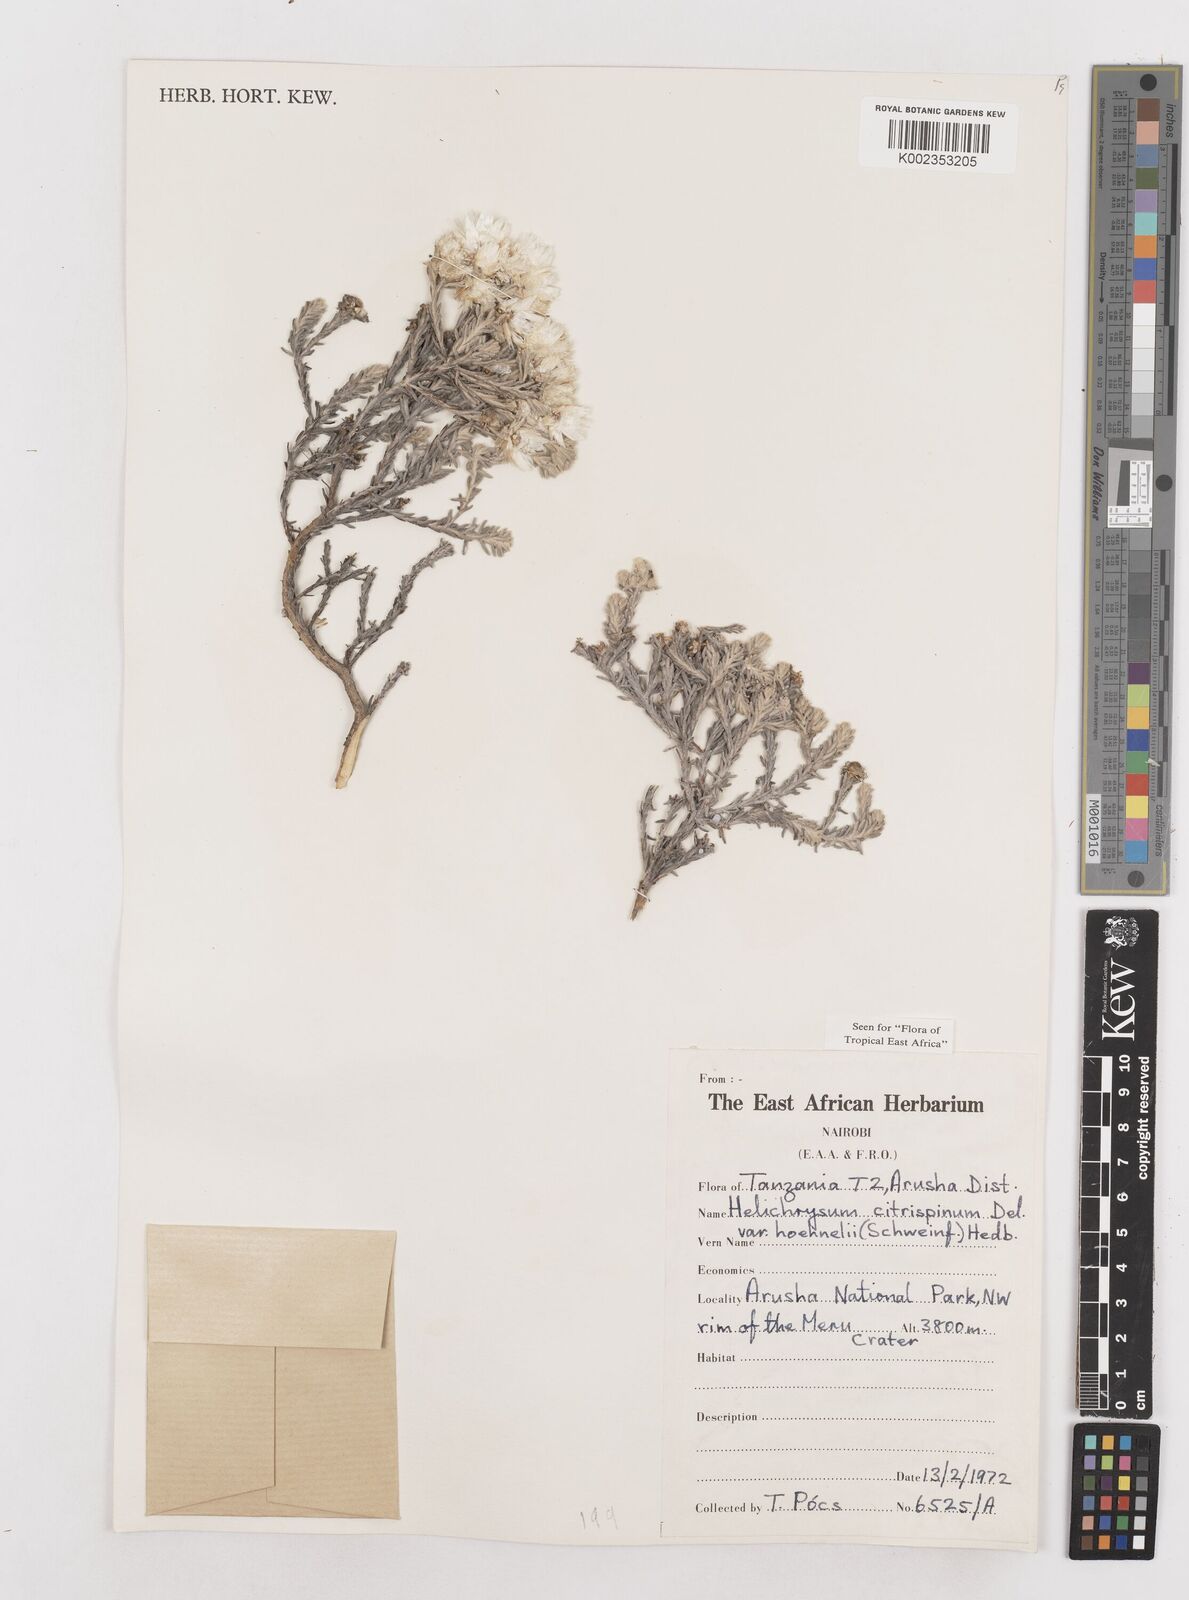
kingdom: Plantae
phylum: Tracheophyta
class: Magnoliopsida
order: Asterales
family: Asteraceae
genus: Helichrysum
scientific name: Helichrysum citrispinum
